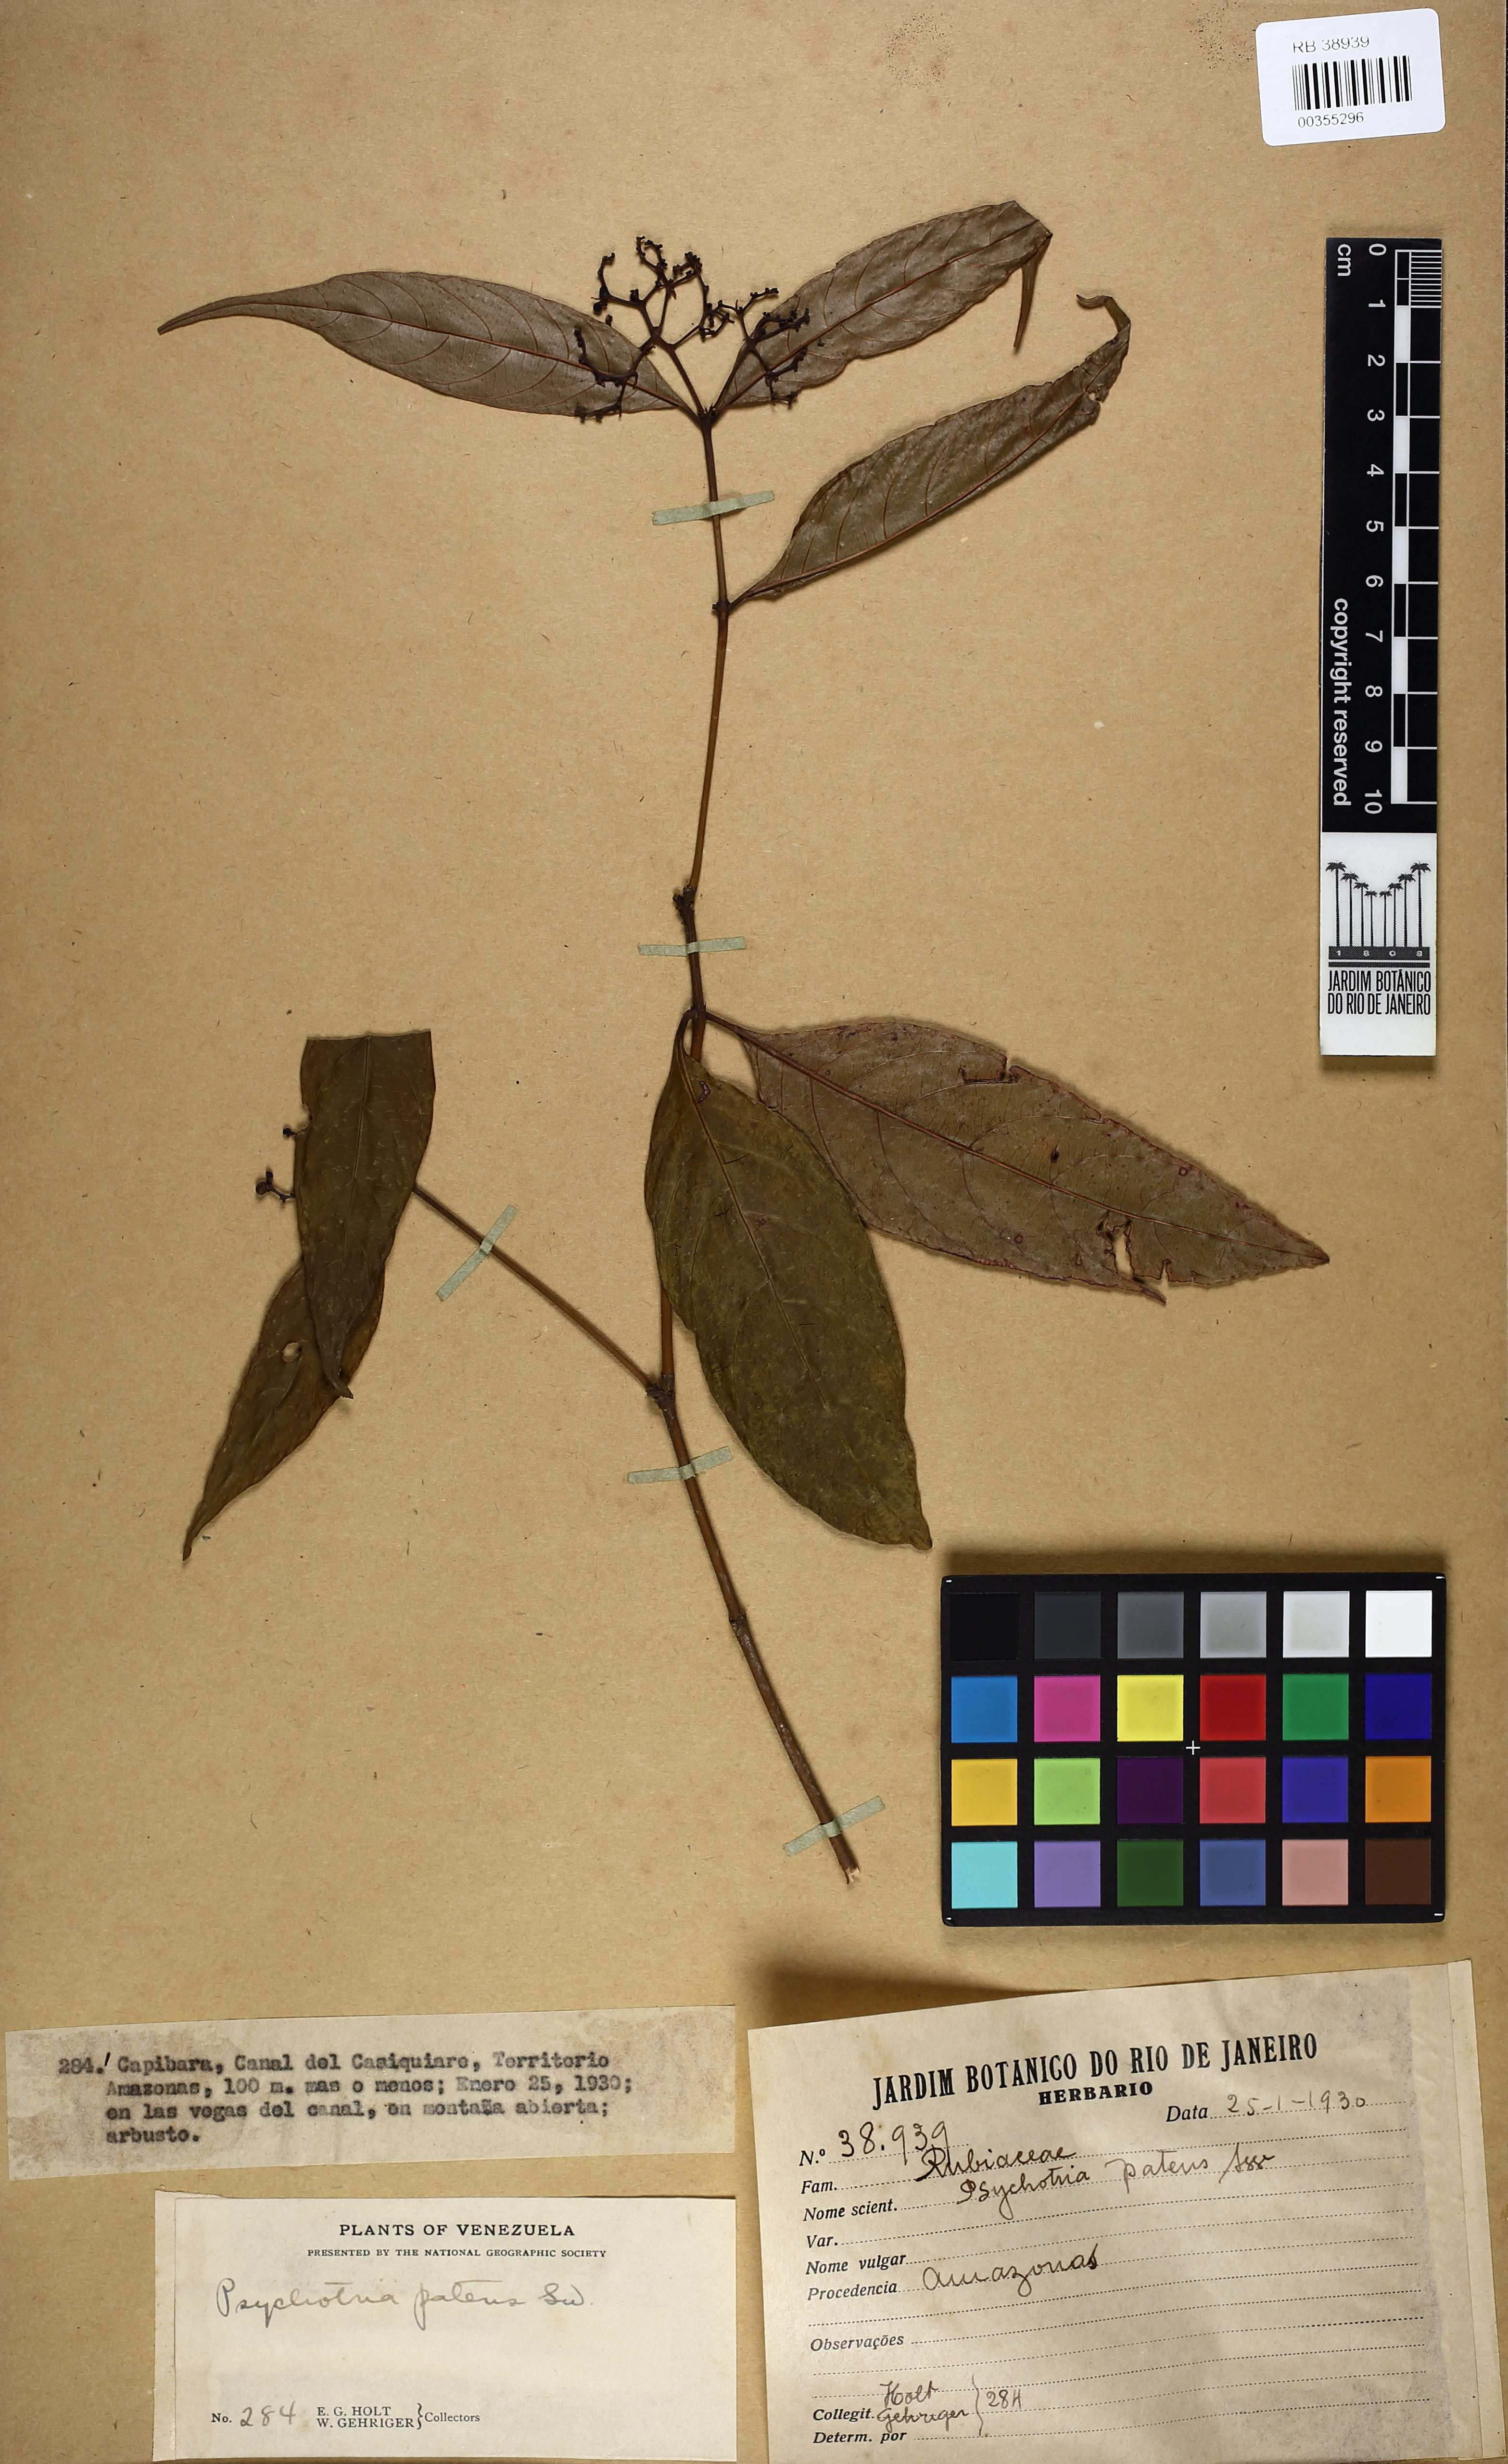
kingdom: Plantae
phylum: Tracheophyta
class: Magnoliopsida
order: Gentianales
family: Rubiaceae
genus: Palicourea
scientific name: Palicourea patens
